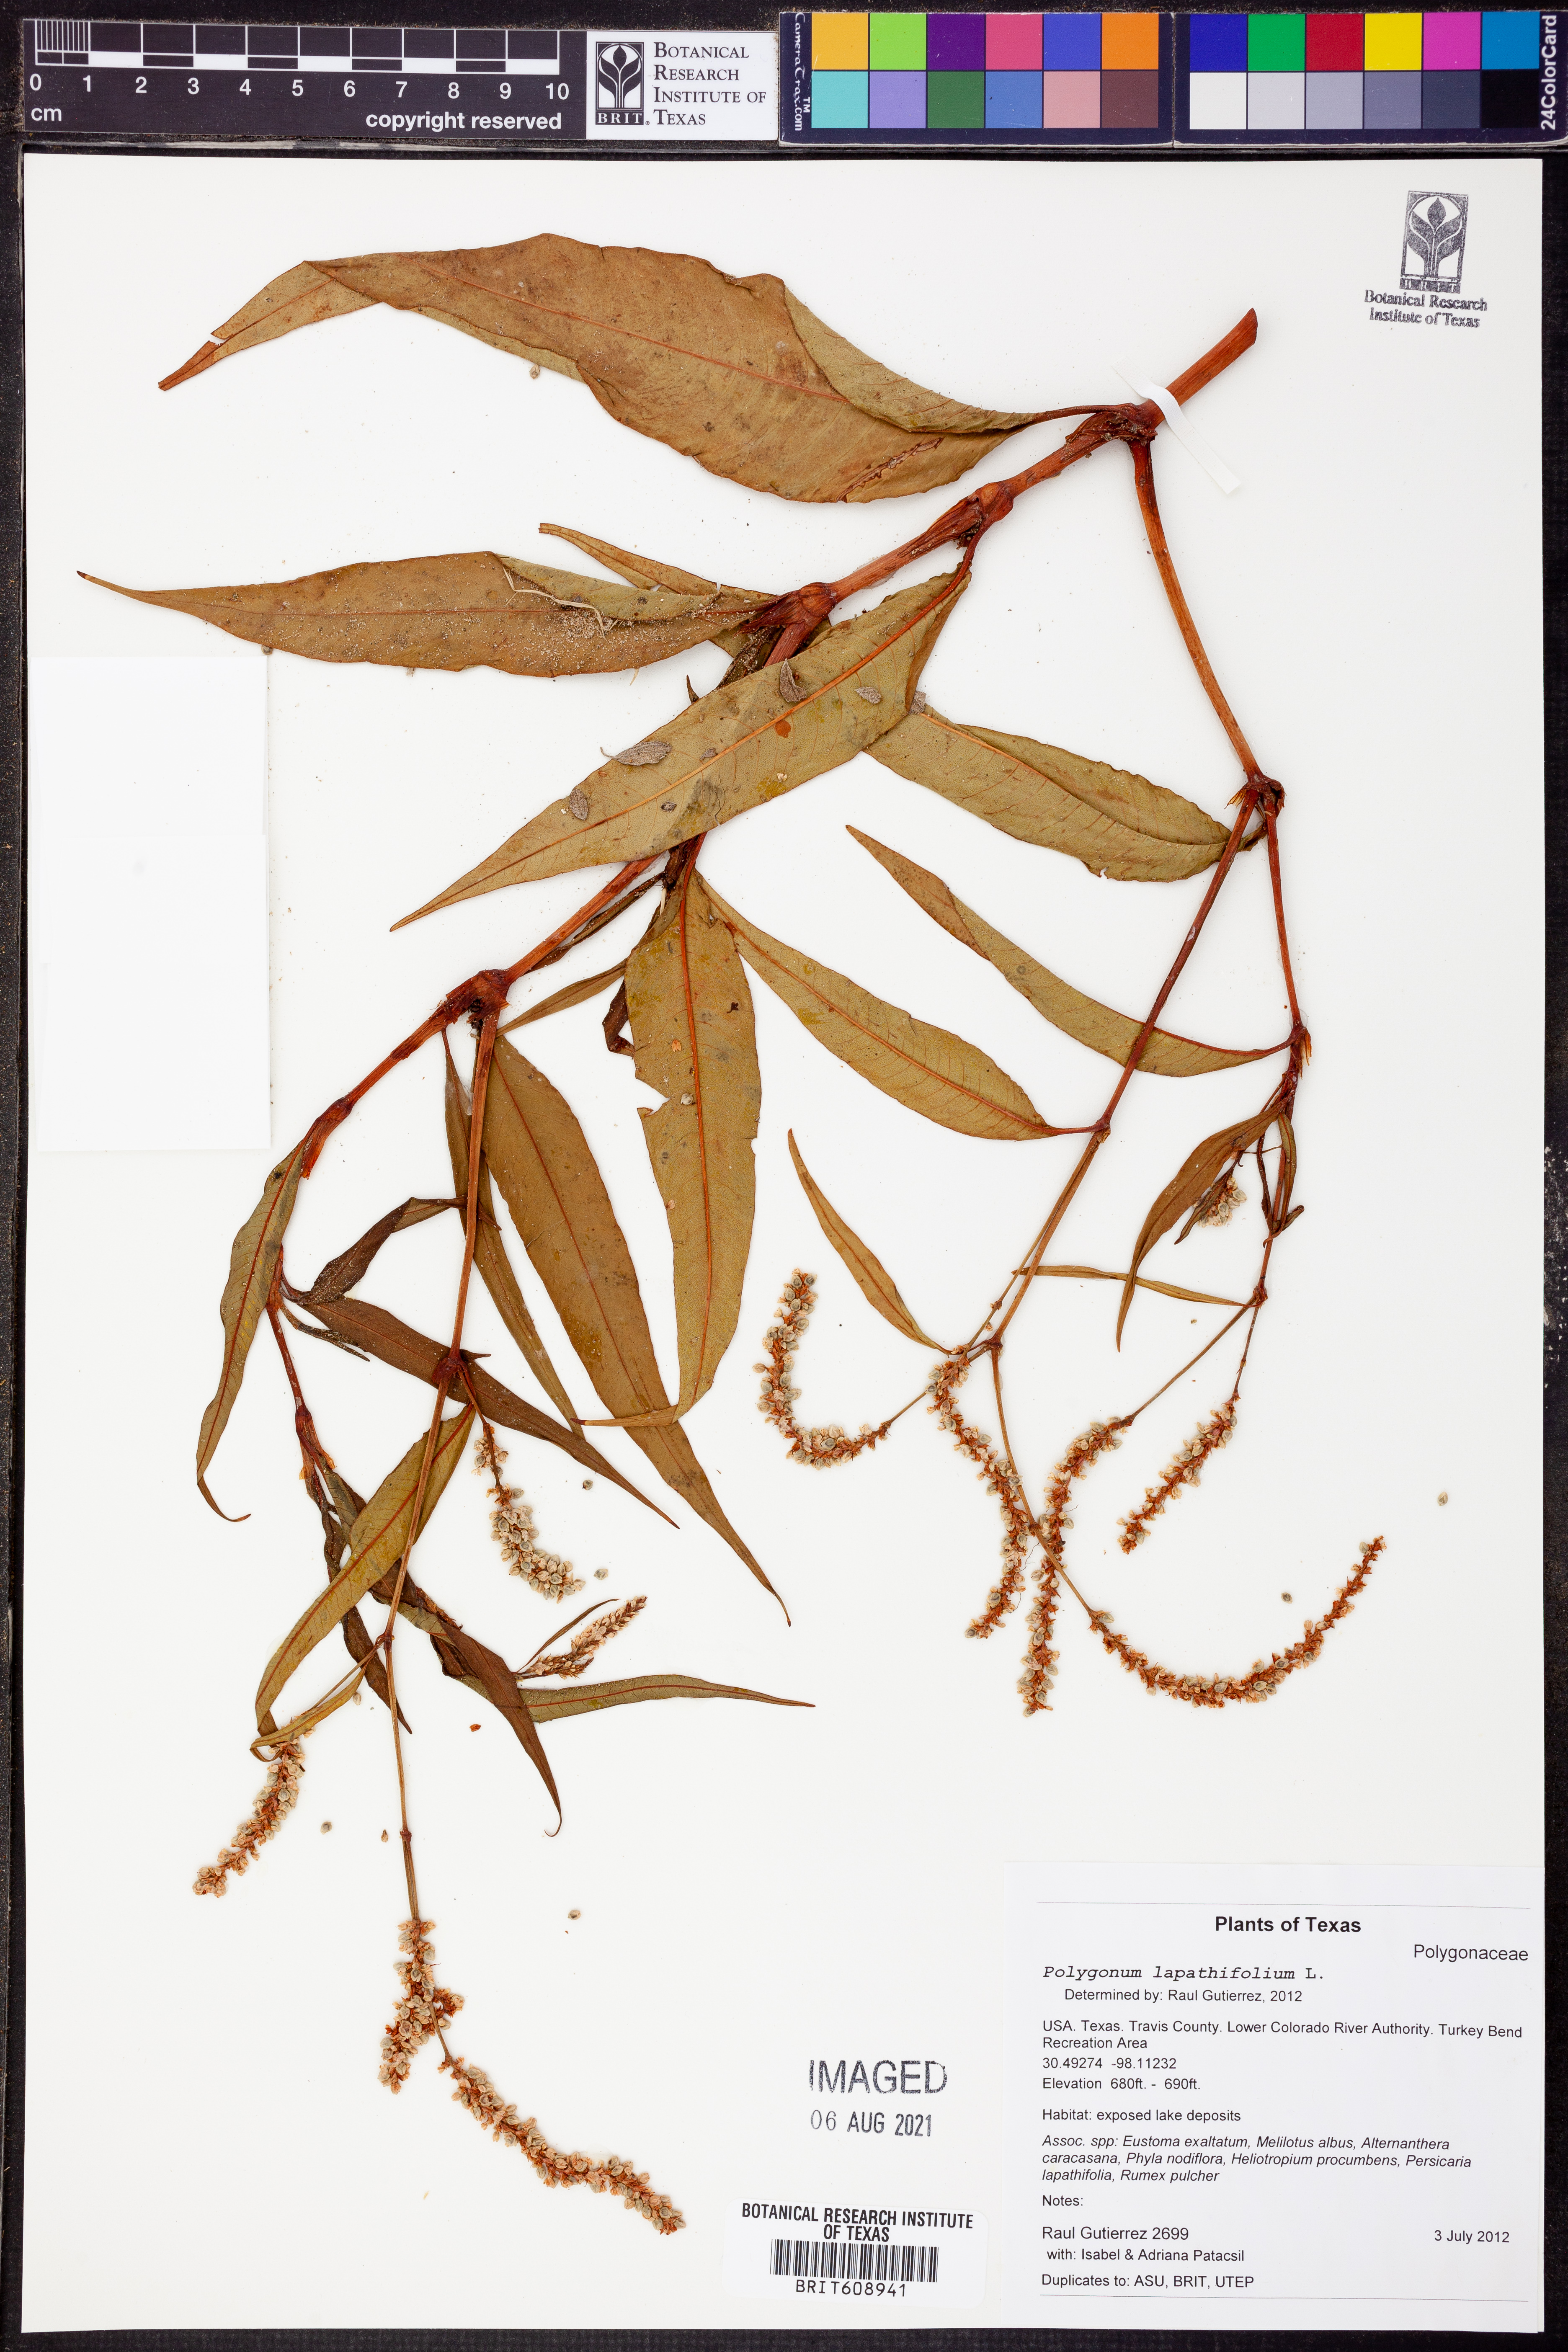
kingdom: Plantae
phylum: Tracheophyta
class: Magnoliopsida
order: Caryophyllales
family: Polygonaceae
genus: Persicaria
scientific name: Persicaria lapathifolia
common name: Curlytop knotweed
